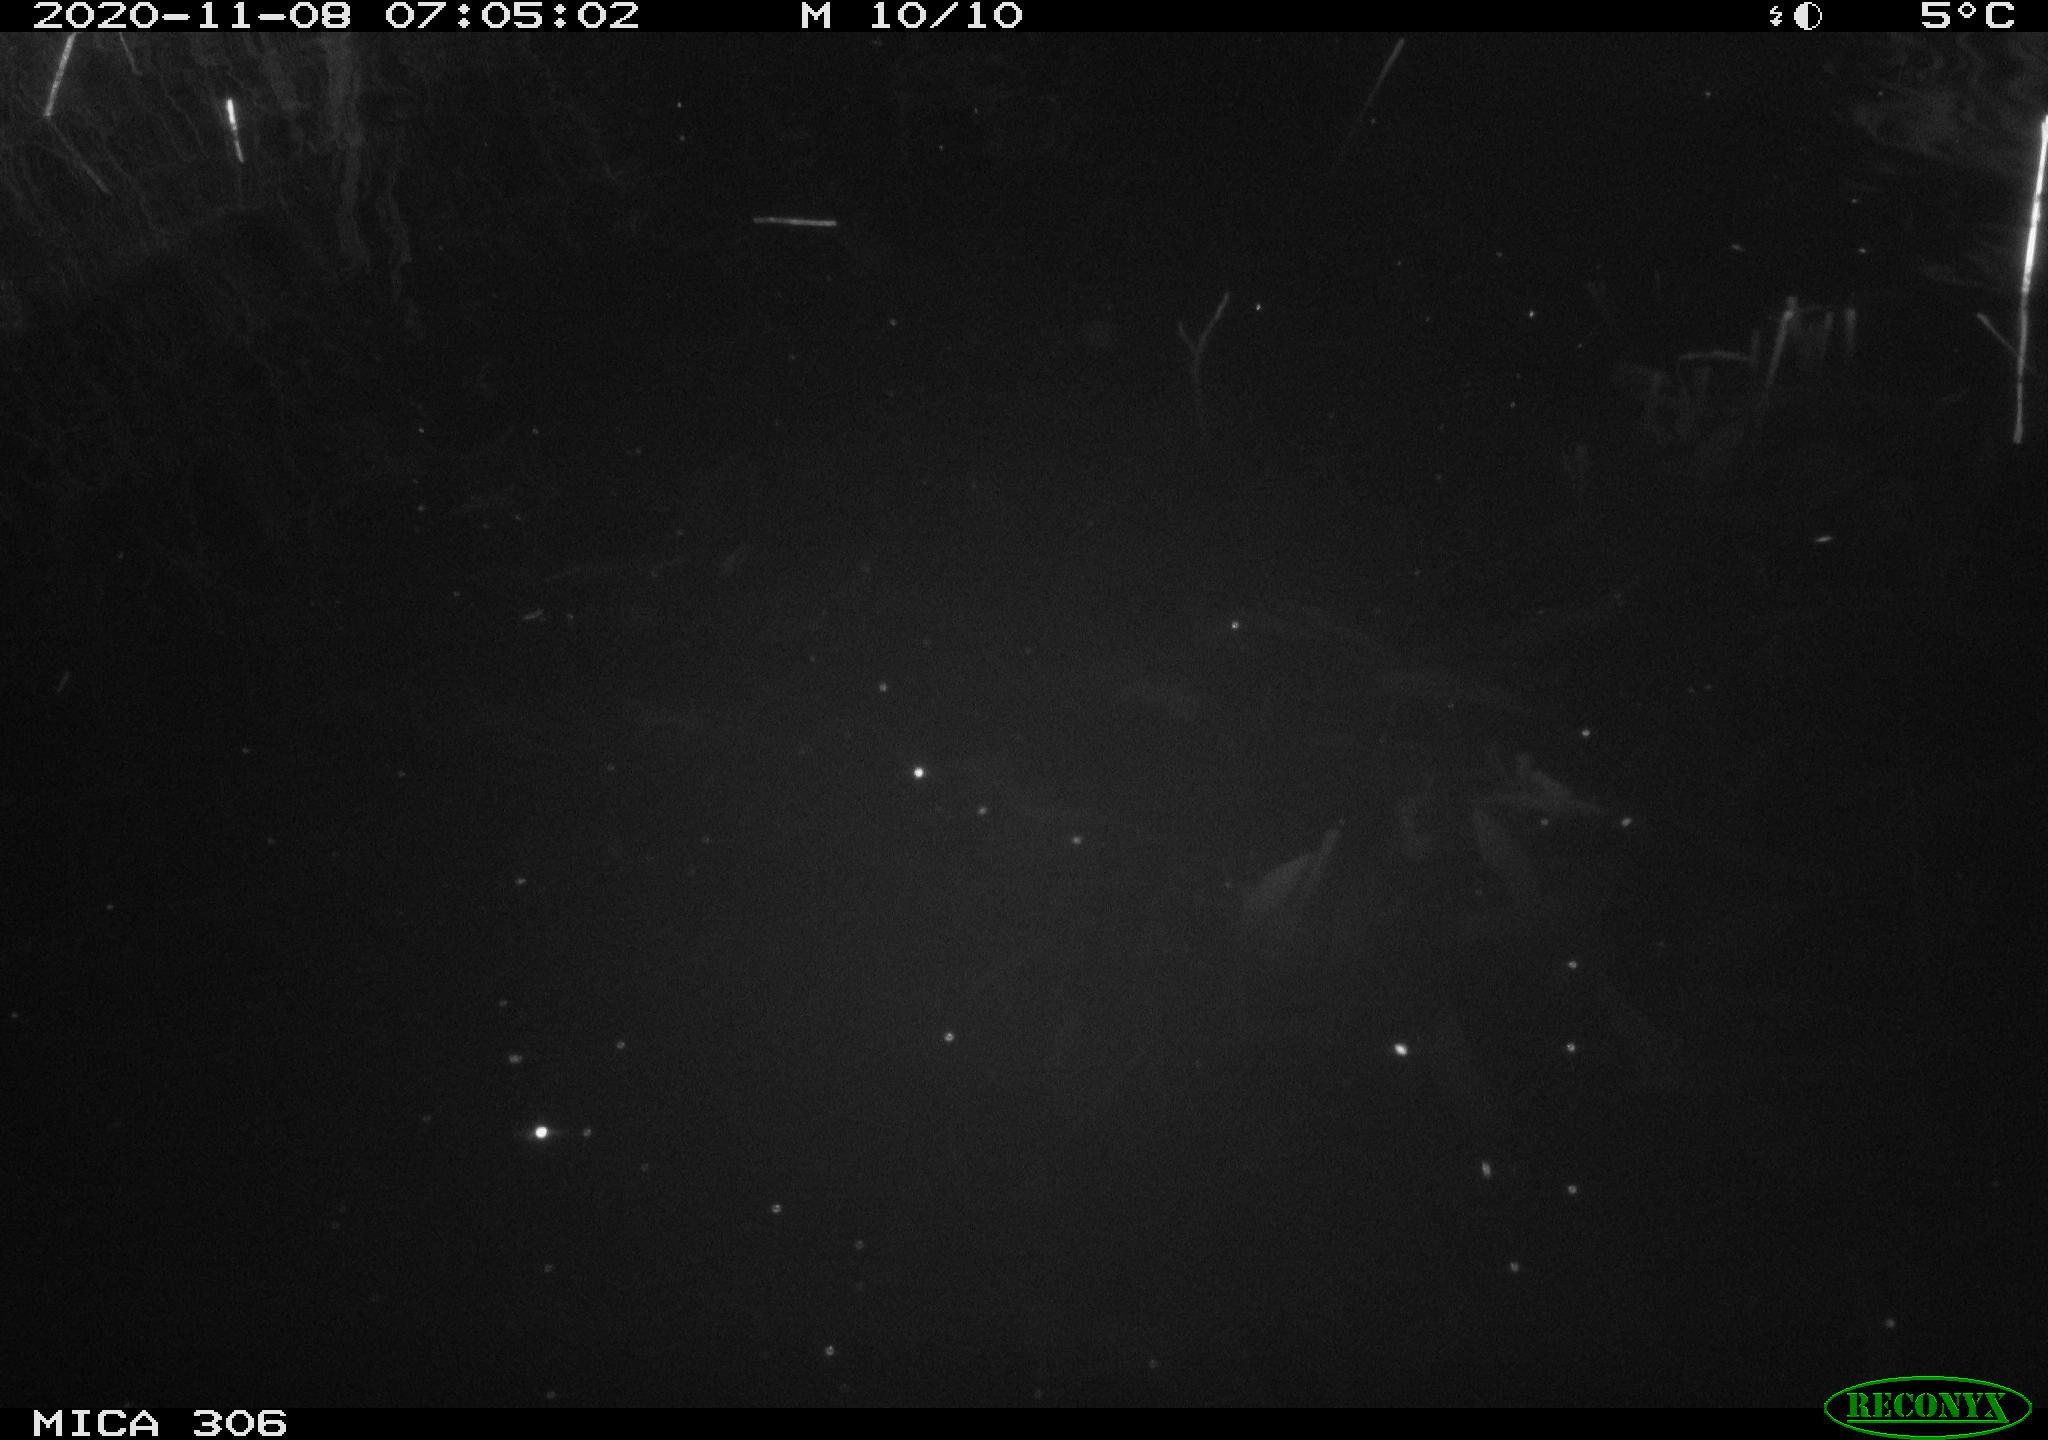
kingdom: Animalia
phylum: Chordata
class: Mammalia
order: Rodentia
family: Muridae
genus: Rattus
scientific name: Rattus norvegicus
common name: Brown rat
